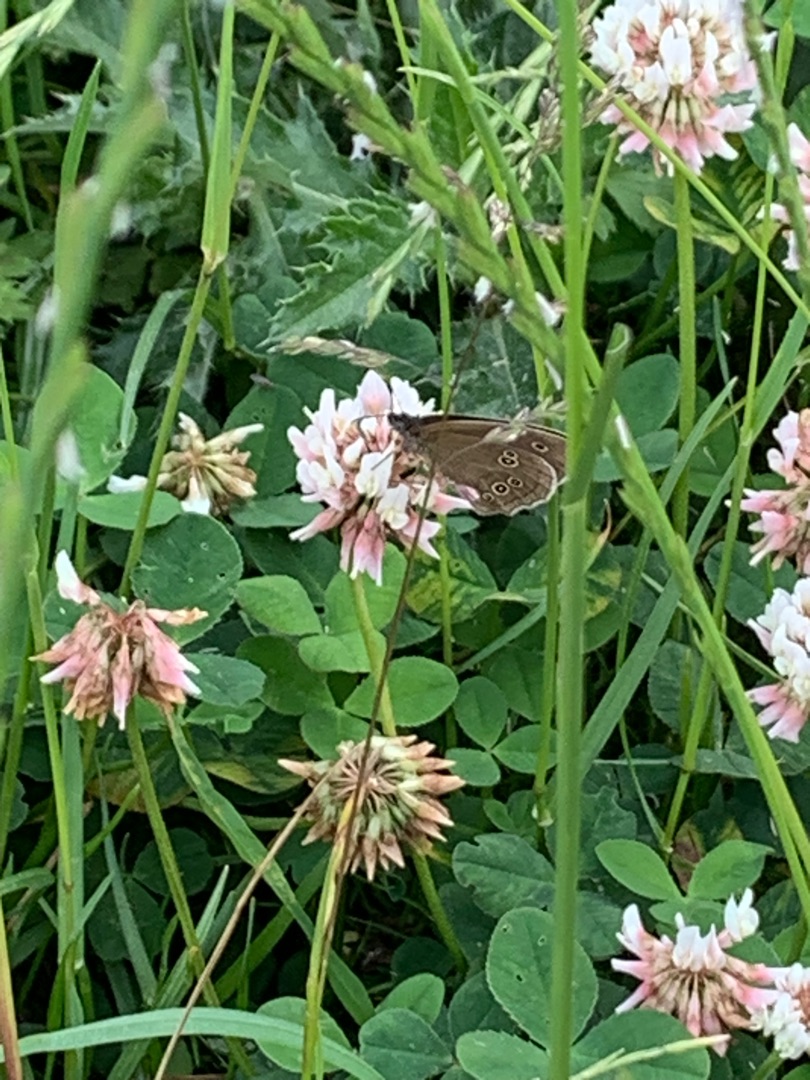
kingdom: Animalia
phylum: Arthropoda
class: Insecta
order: Lepidoptera
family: Nymphalidae
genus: Aphantopus
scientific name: Aphantopus hyperantus
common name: Engrandøje
